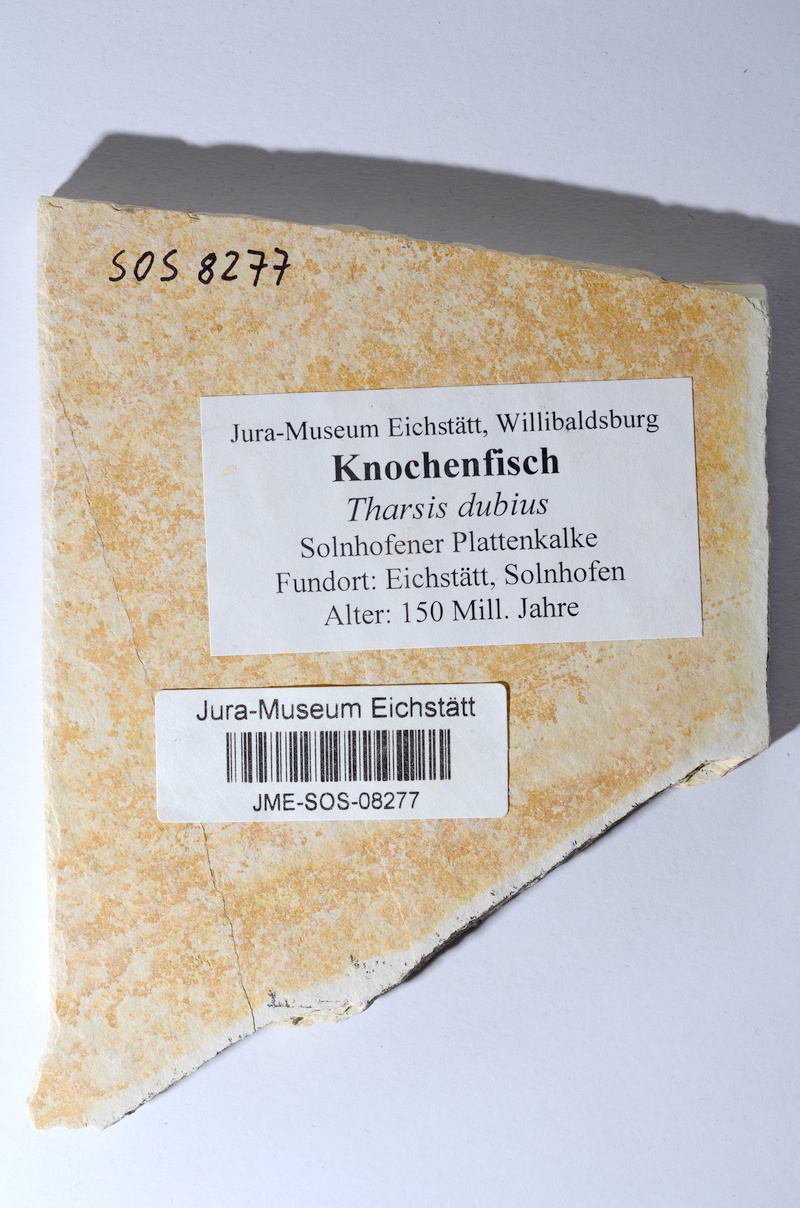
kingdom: Animalia
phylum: Chordata
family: Ascalaboidae
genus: Tharsis
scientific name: Tharsis dubius
